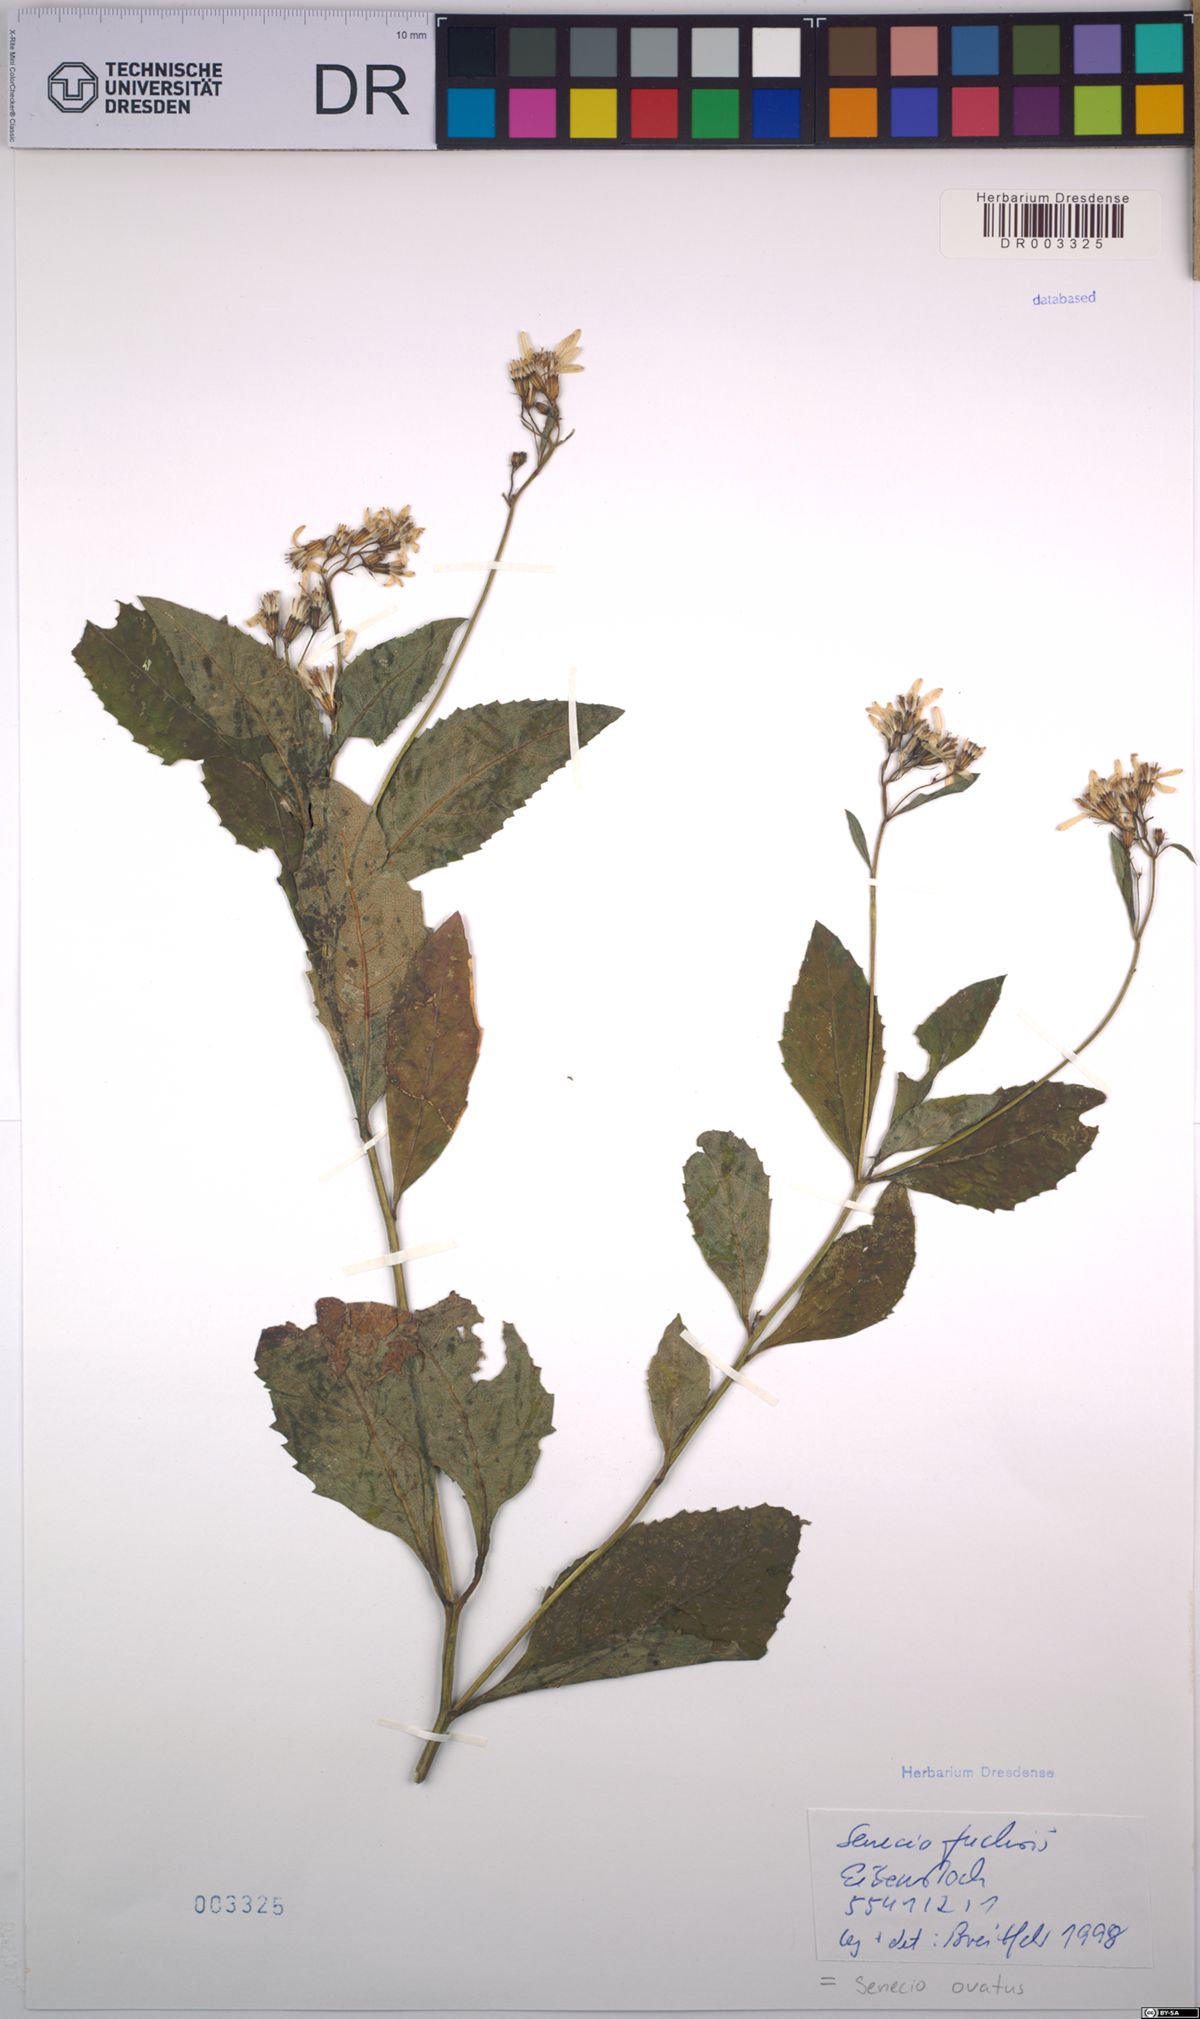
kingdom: Plantae
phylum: Tracheophyta
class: Magnoliopsida
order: Asterales
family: Asteraceae
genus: Senecio
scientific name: Senecio ovatus
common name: Wood ragwort
